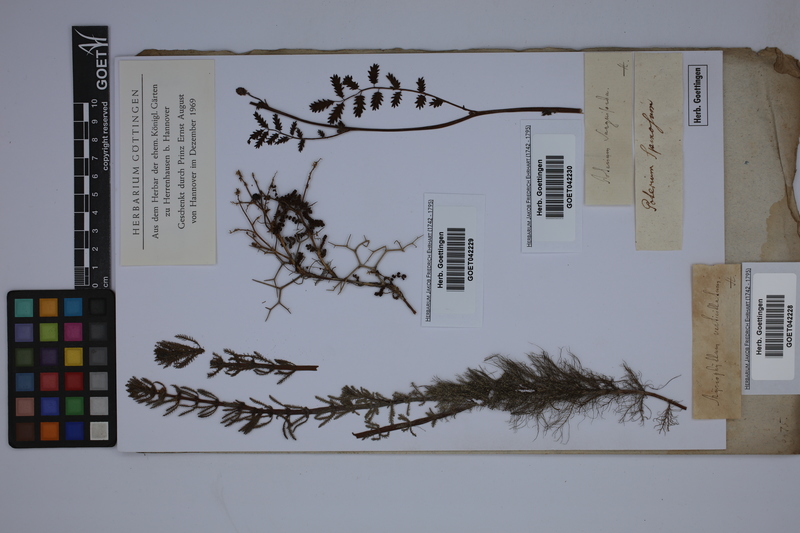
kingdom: Plantae
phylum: Tracheophyta
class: Magnoliopsida
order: Rosales
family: Rosaceae
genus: Sarcopoterium
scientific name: Sarcopoterium spinosum
